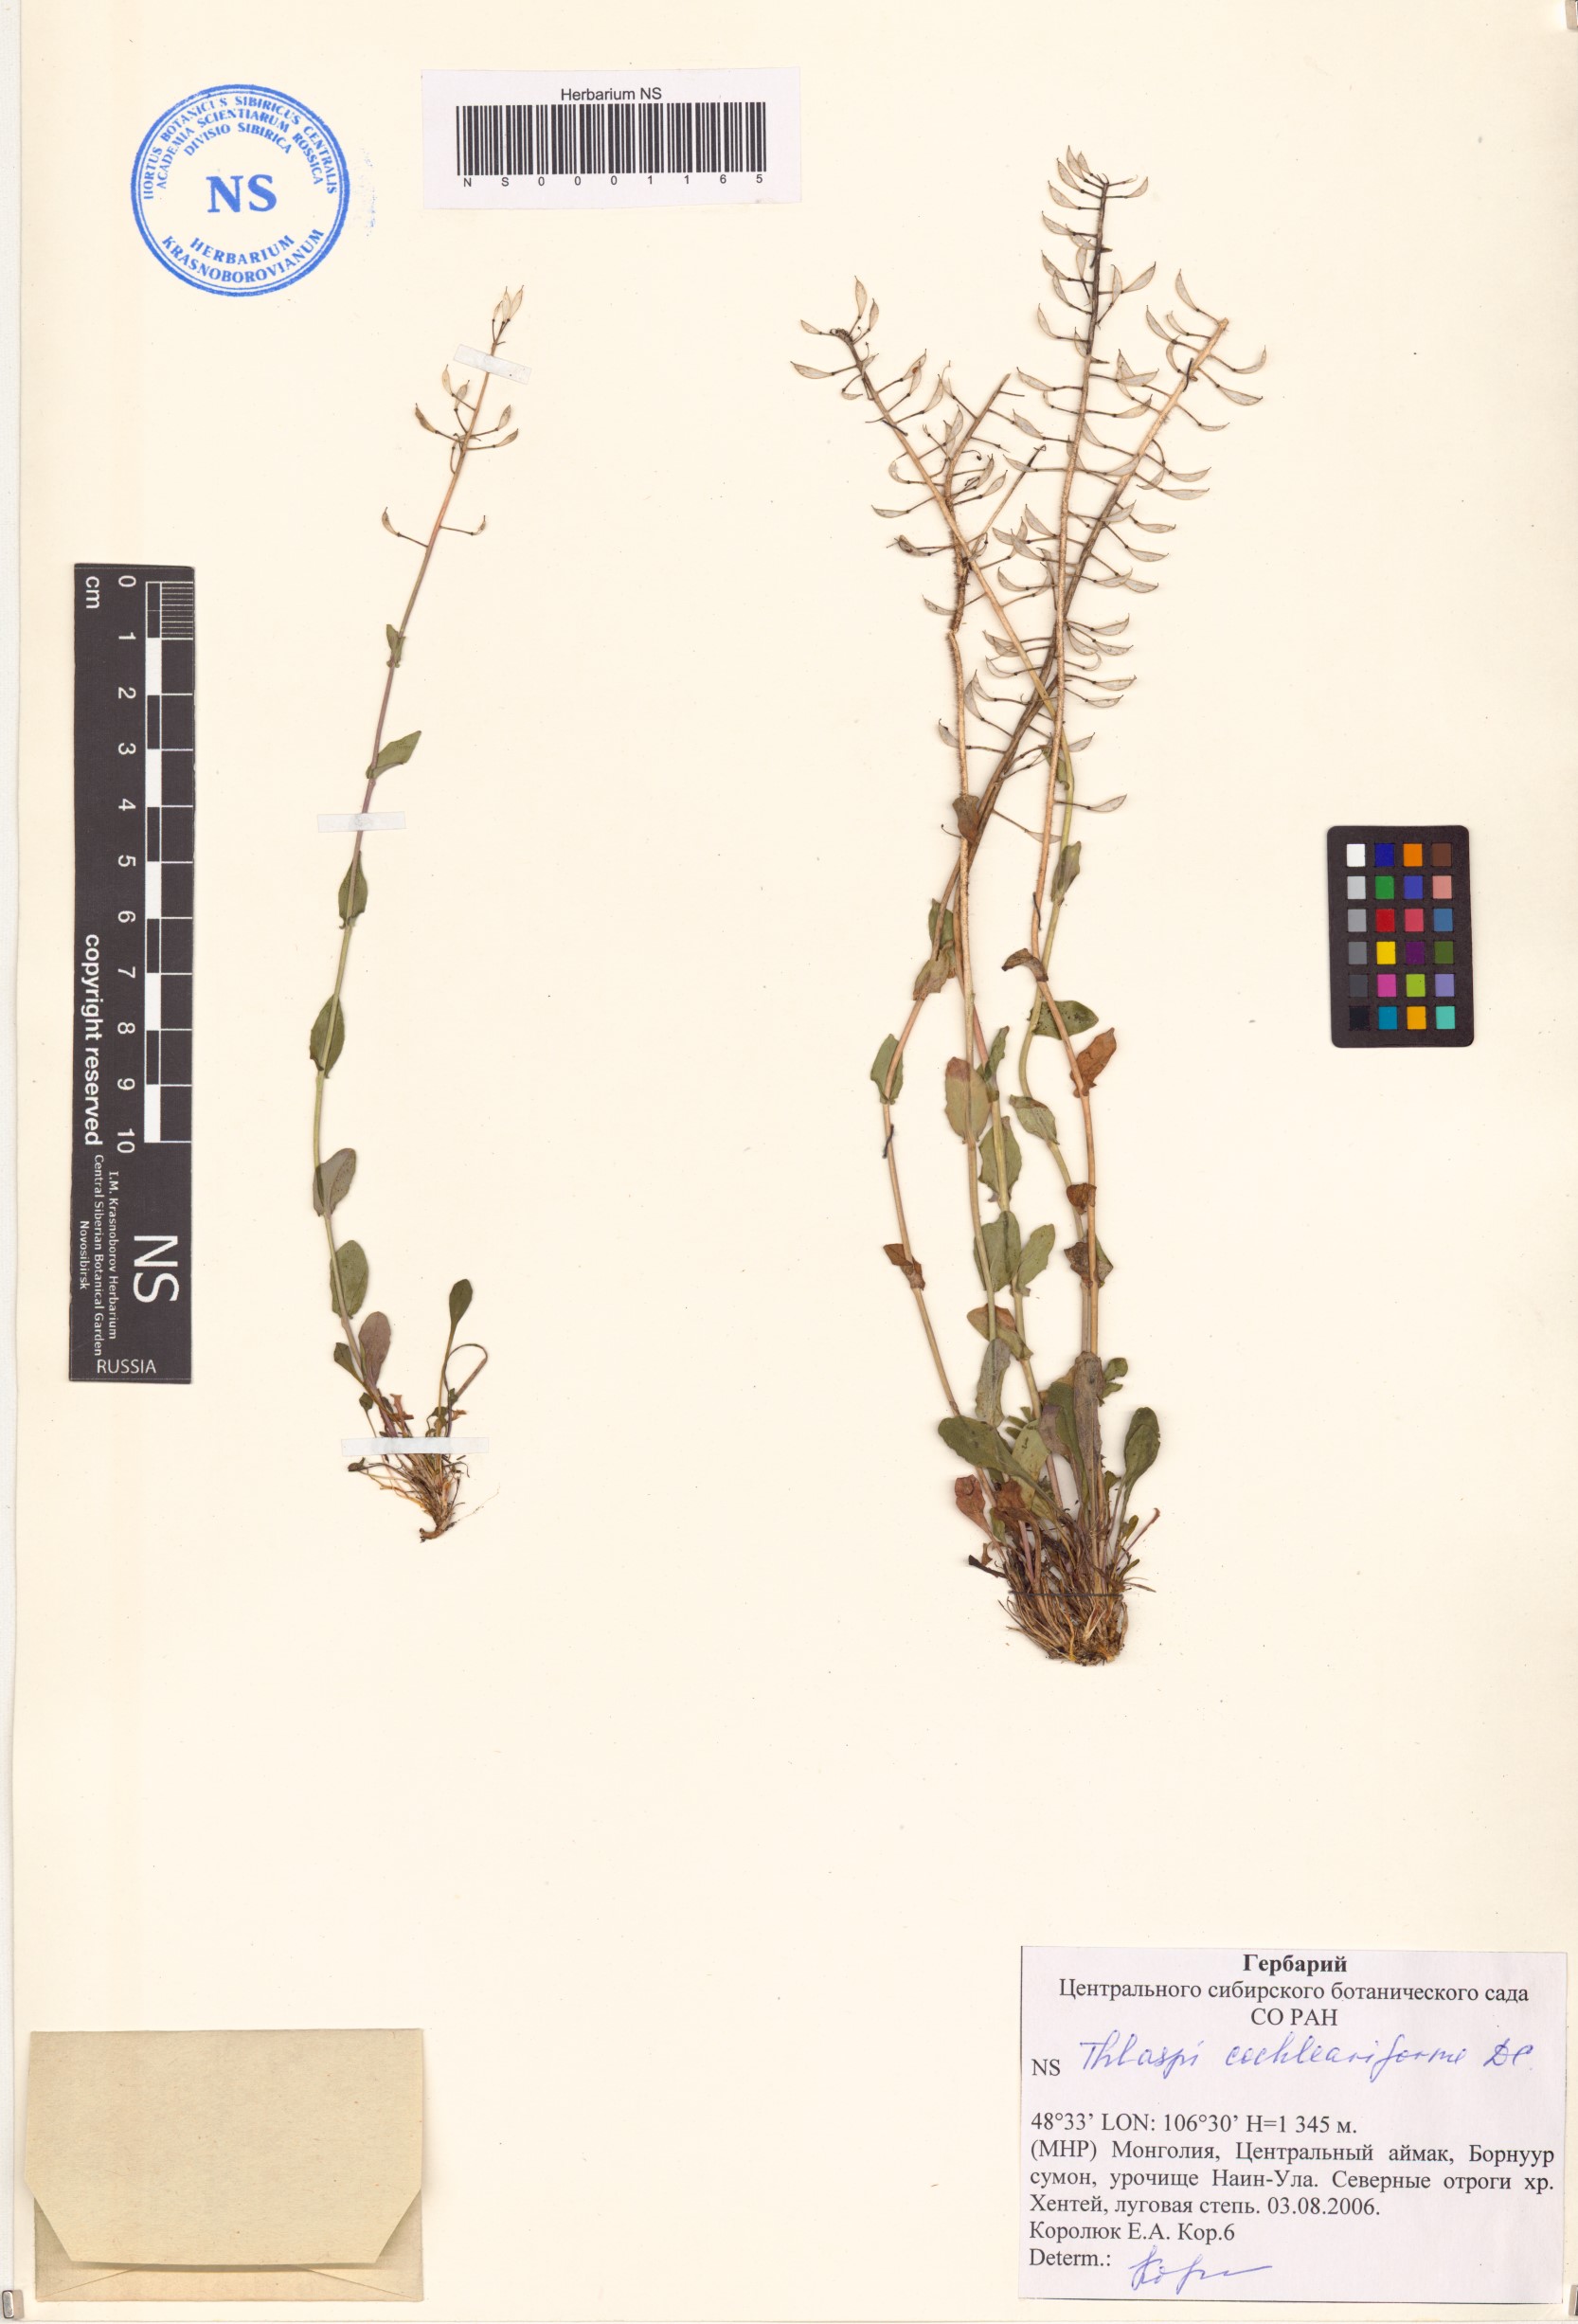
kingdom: Plantae
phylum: Tracheophyta
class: Magnoliopsida
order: Brassicales
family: Brassicaceae
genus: Noccaea
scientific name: Noccaea thlaspidioides
